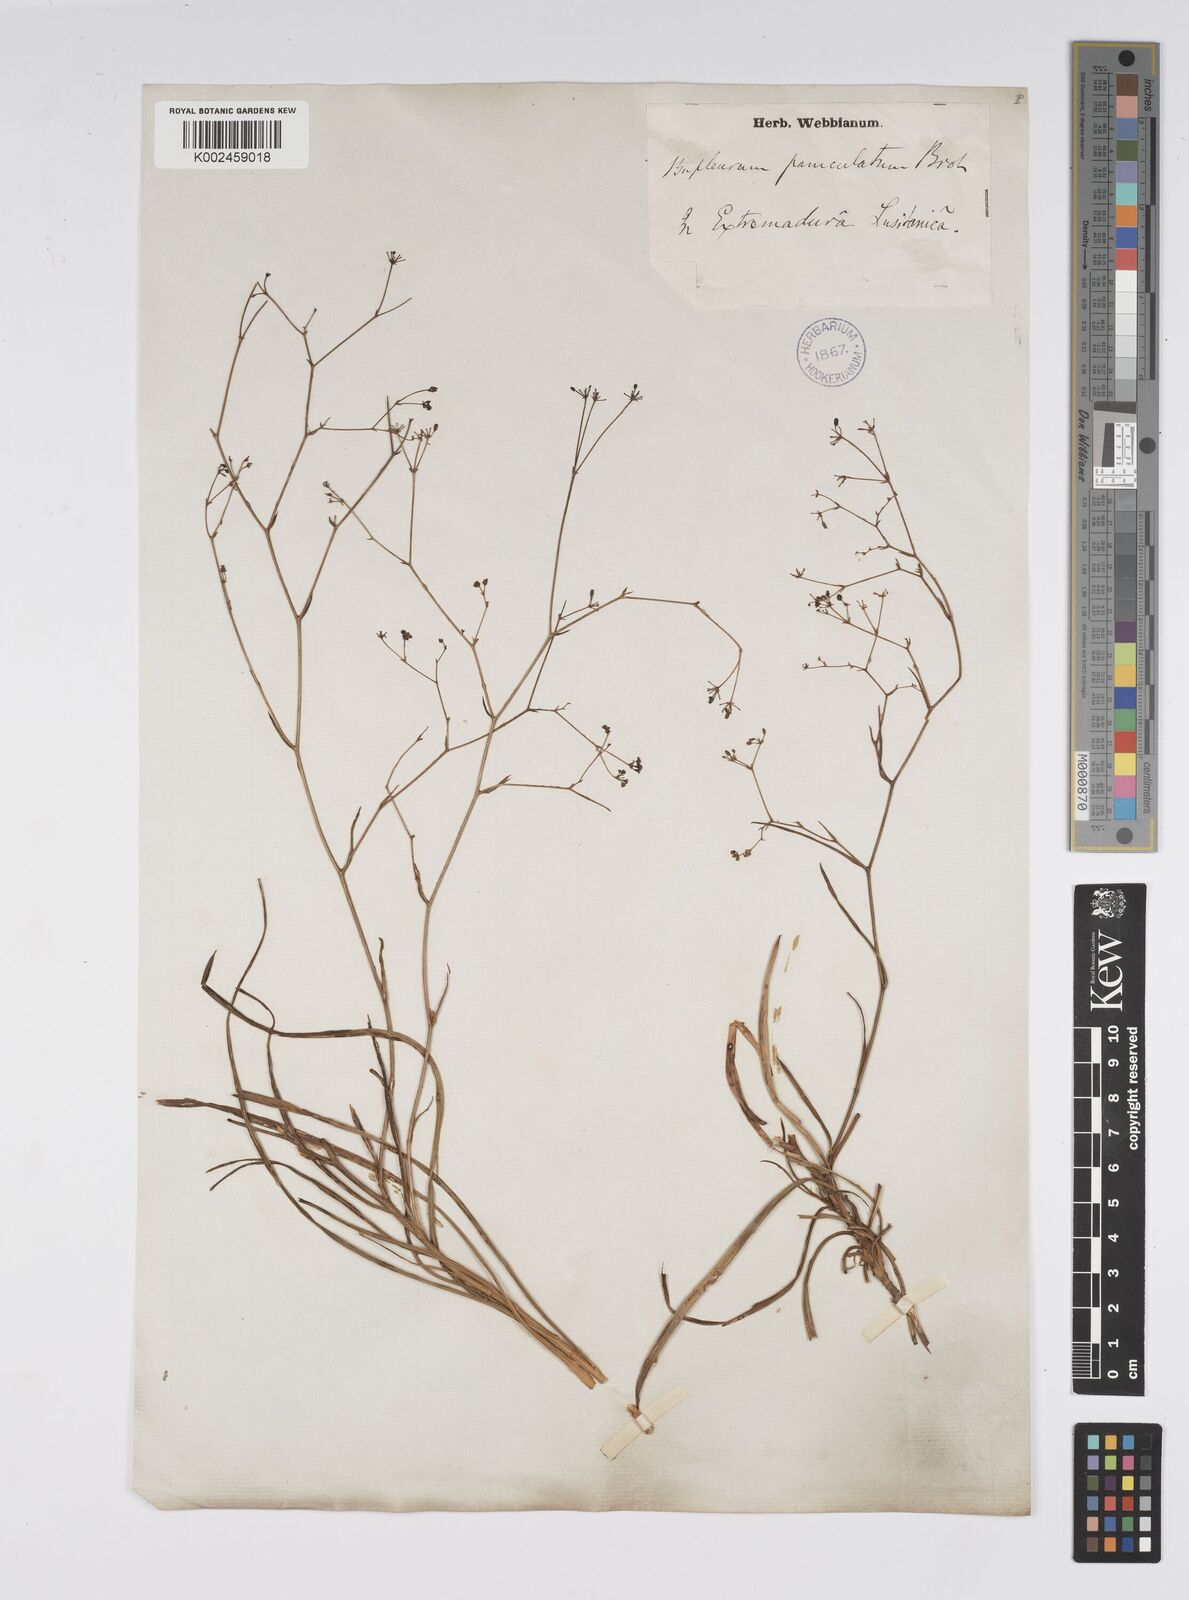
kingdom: Plantae
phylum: Tracheophyta
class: Magnoliopsida
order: Apiales
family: Apiaceae
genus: Bupleurum
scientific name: Bupleurum rigidum
